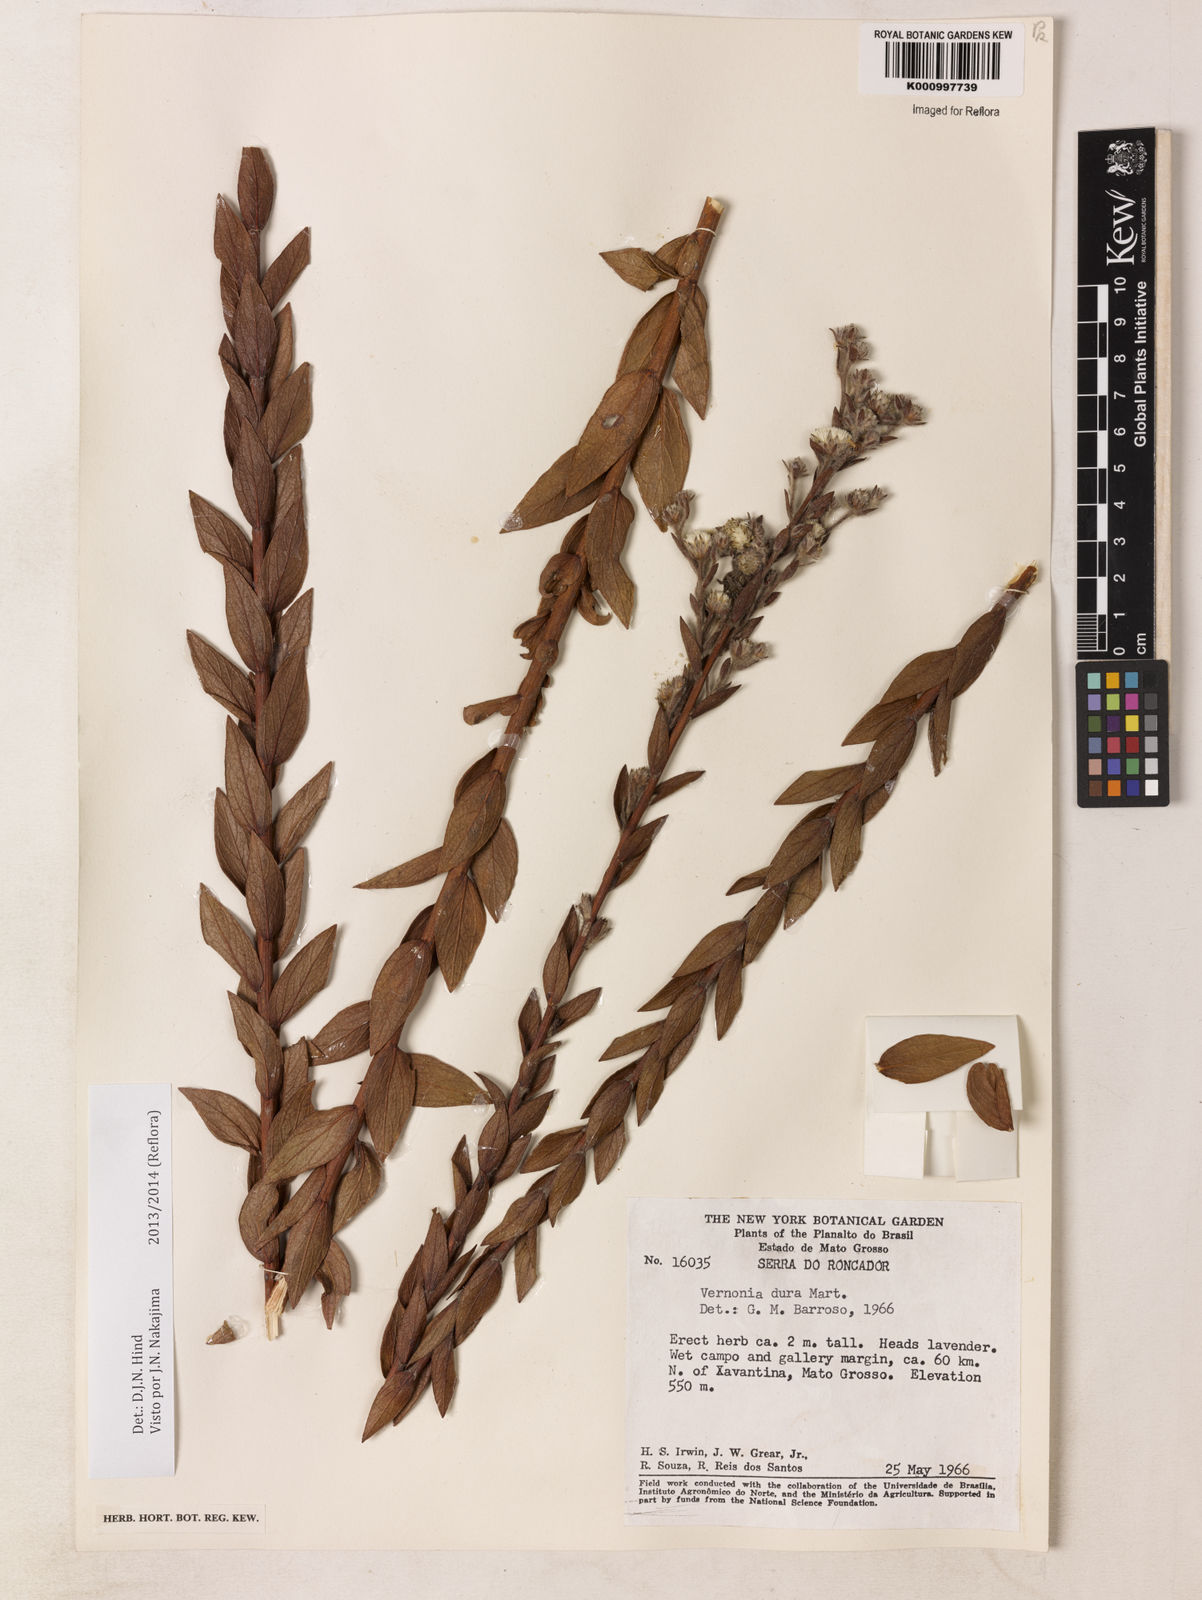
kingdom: Plantae
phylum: Tracheophyta
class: Magnoliopsida
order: Asterales
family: Asteraceae
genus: Lessingianthus
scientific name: Lessingianthus durus
